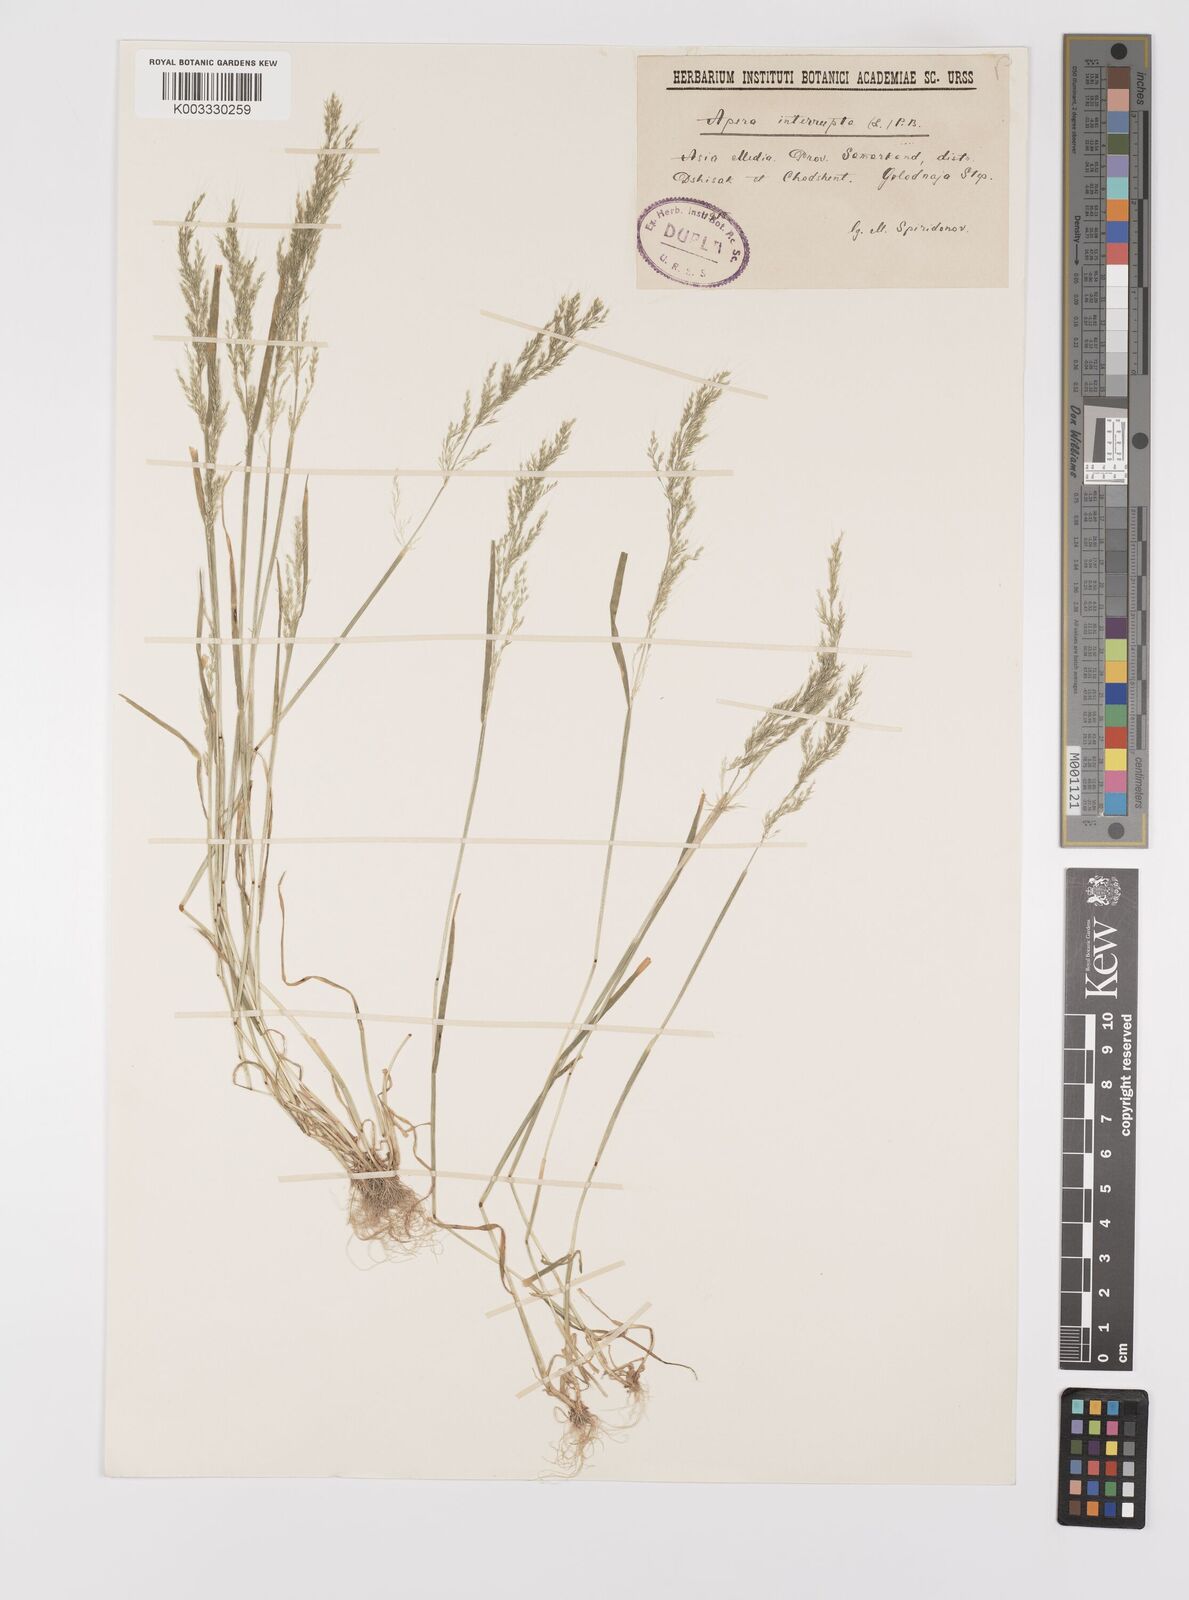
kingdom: Plantae
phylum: Tracheophyta
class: Liliopsida
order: Poales
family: Poaceae
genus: Apera
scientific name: Apera interrupta
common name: Dense silky-bent
